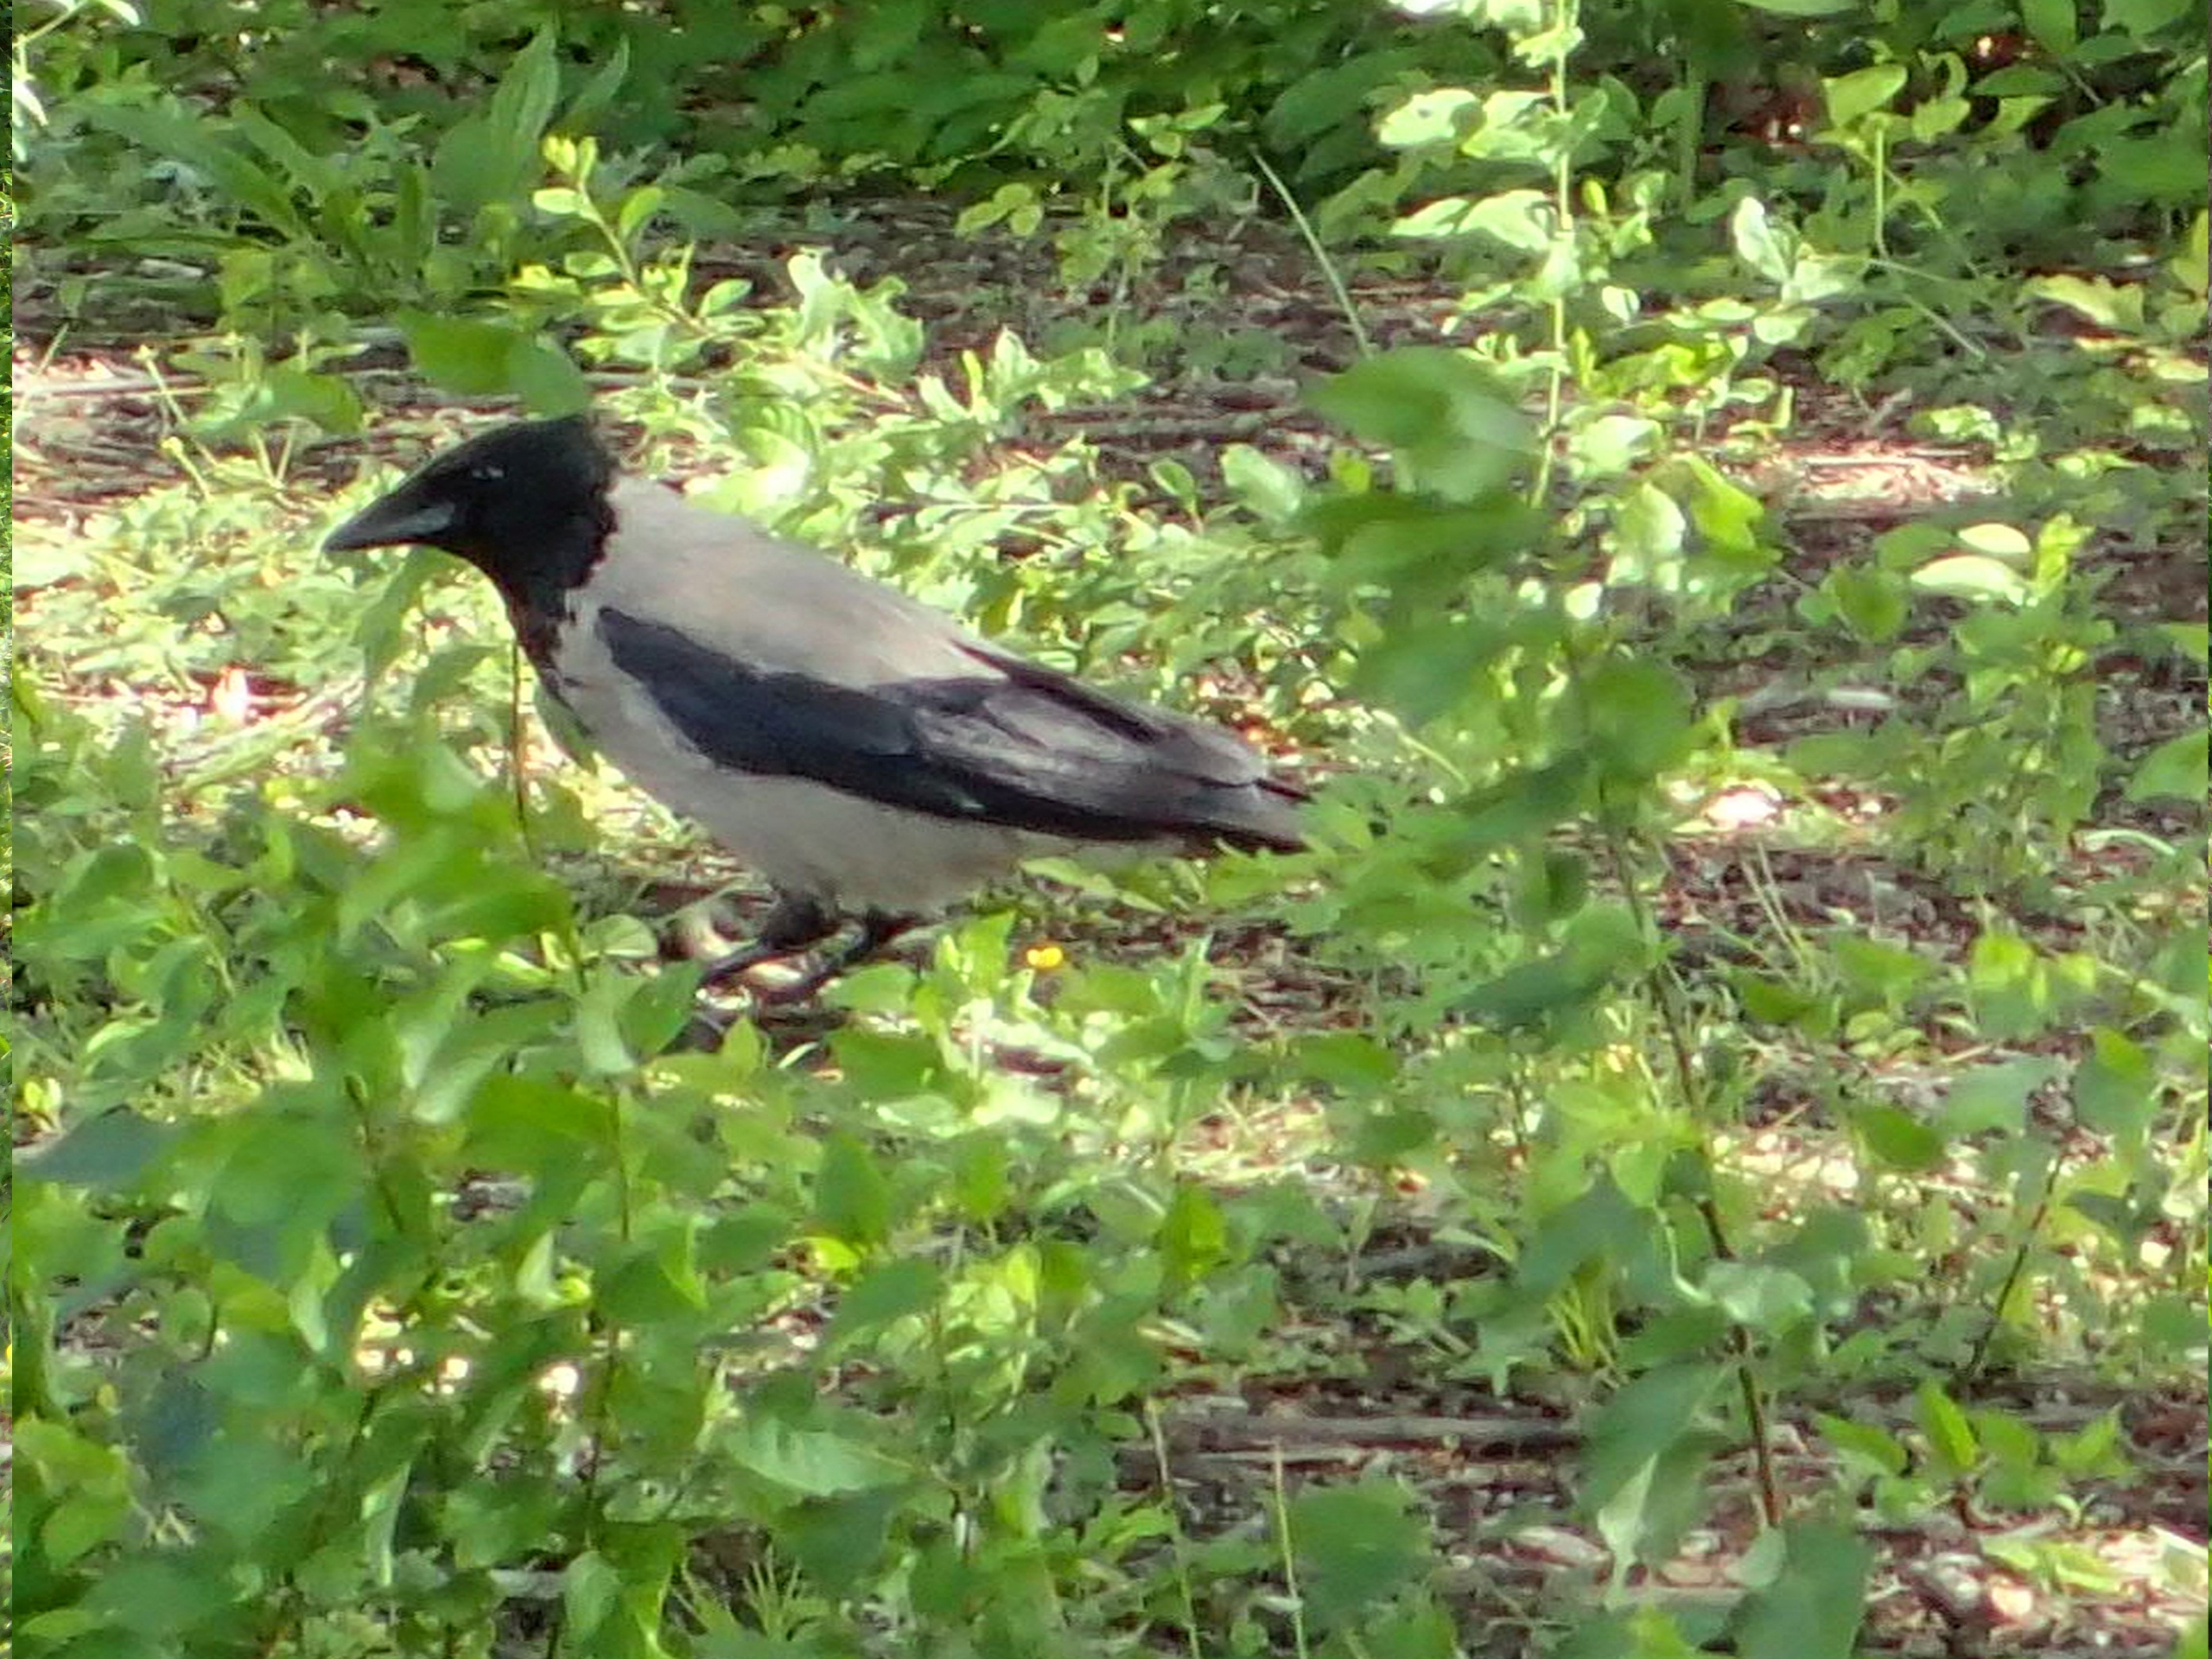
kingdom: Animalia
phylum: Chordata
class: Aves
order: Passeriformes
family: Corvidae
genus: Corvus
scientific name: Corvus cornix
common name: Gråkrage
